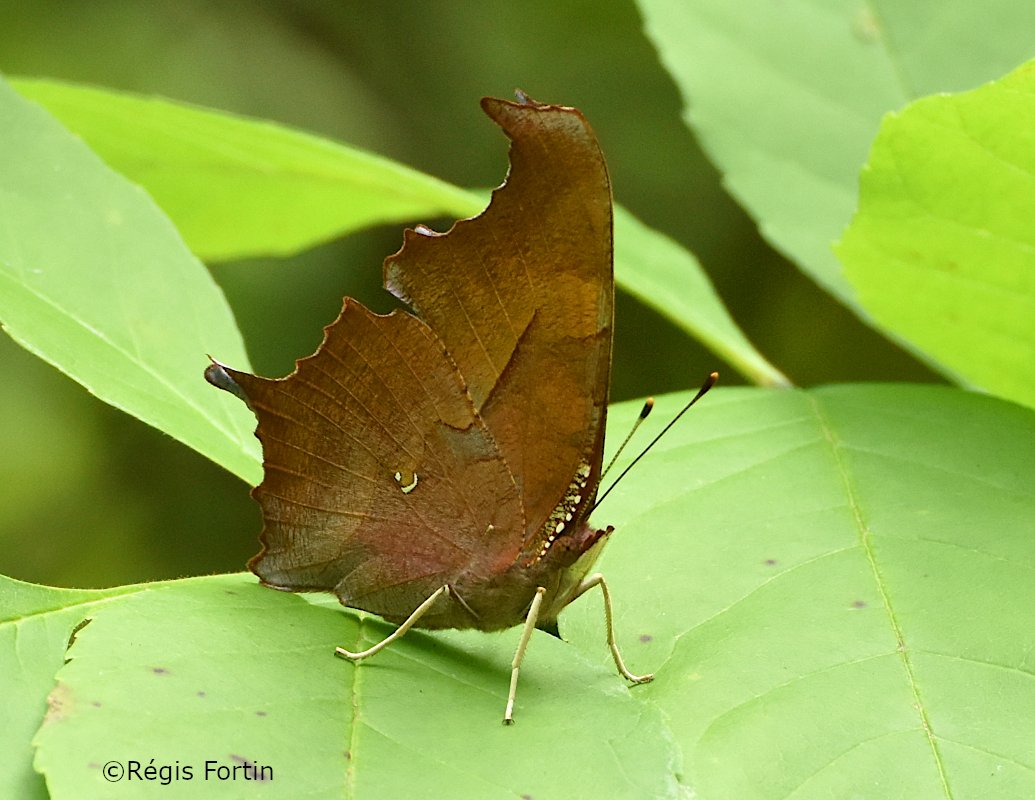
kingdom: Animalia
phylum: Arthropoda
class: Insecta
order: Lepidoptera
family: Nymphalidae
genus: Polygonia
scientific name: Polygonia interrogationis
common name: Question Mark
